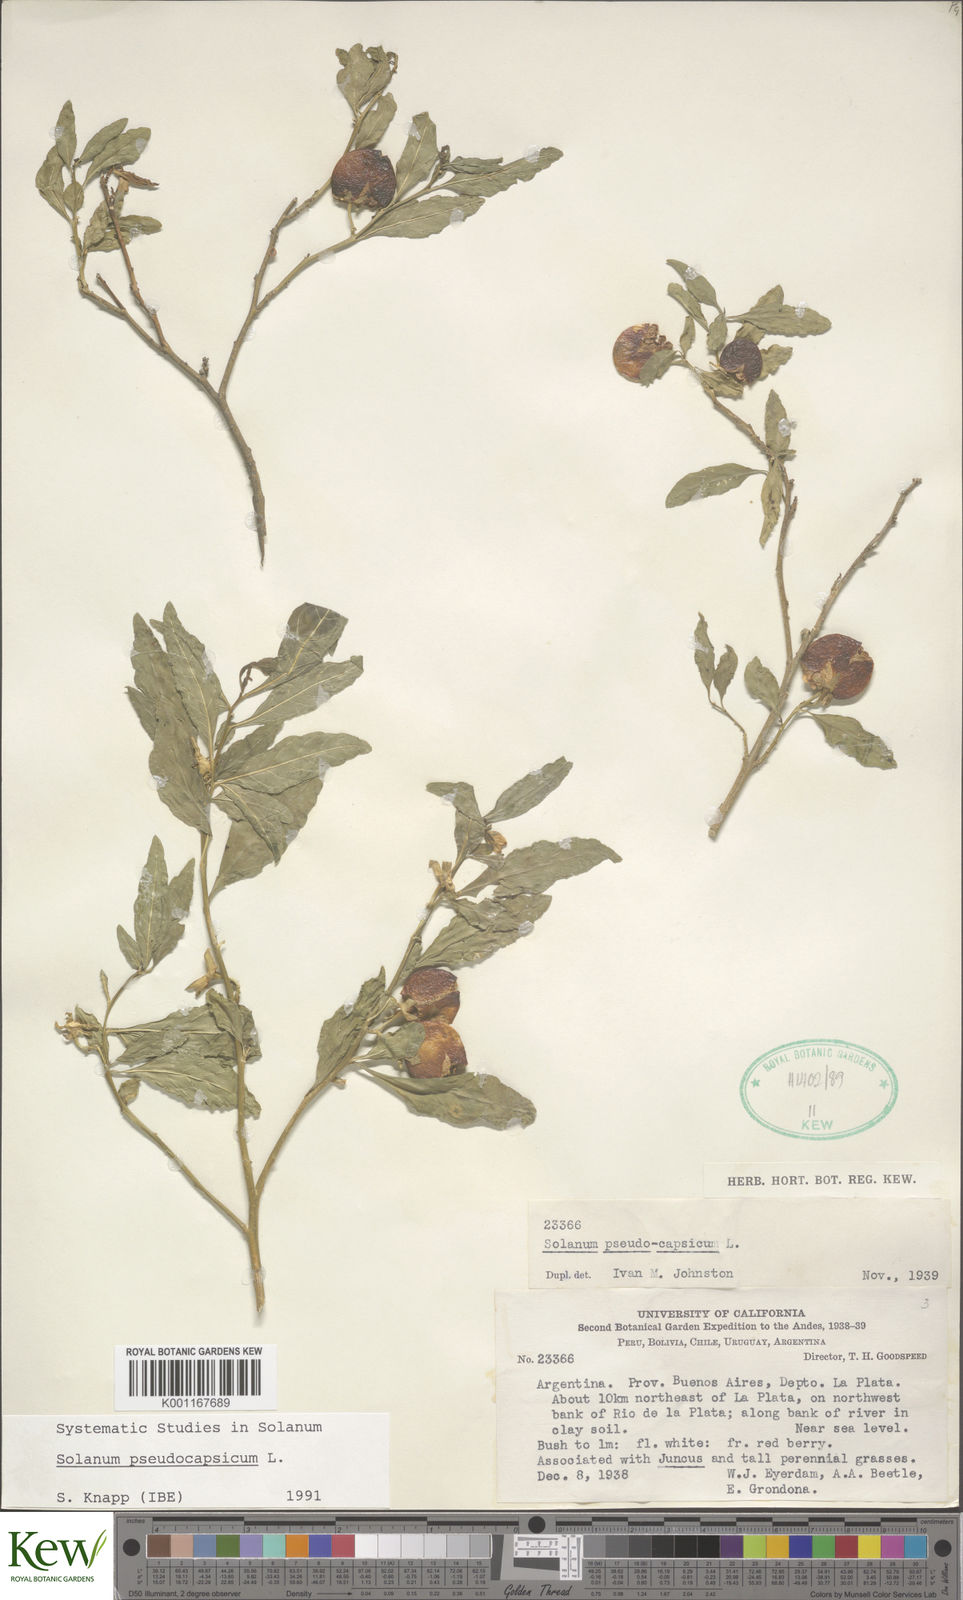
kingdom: Plantae
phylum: Tracheophyta
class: Magnoliopsida
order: Solanales
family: Solanaceae
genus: Solanum
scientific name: Solanum pseudocapsicum
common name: Jerusalem cherry
